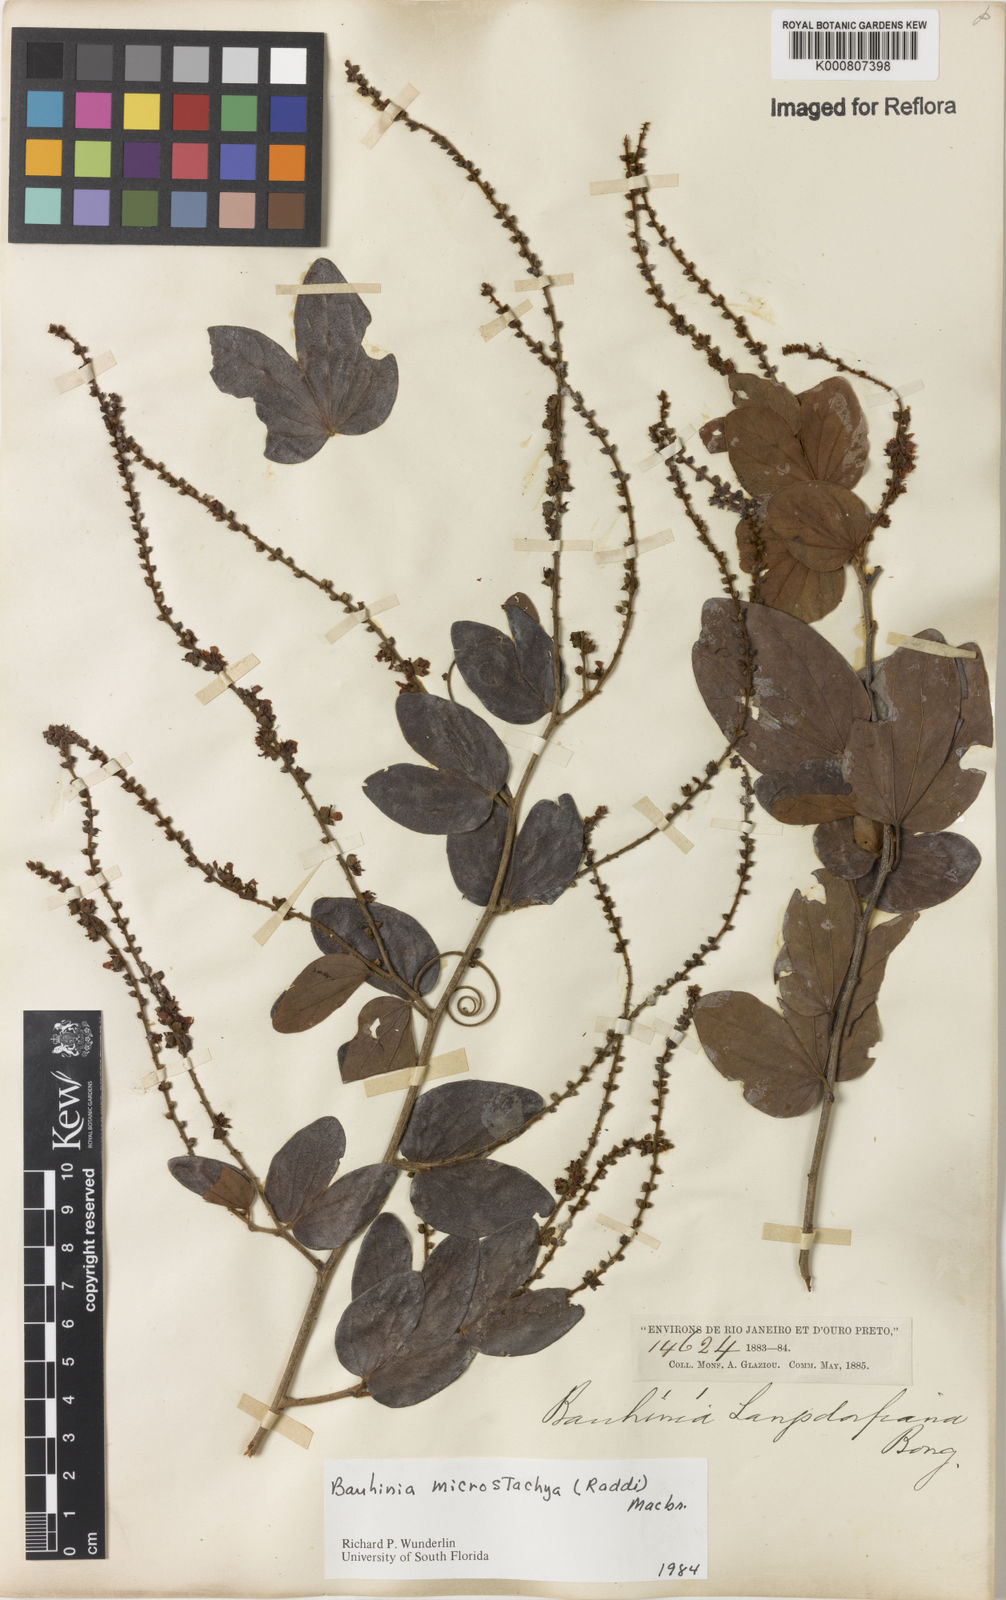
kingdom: Plantae
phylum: Tracheophyta
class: Magnoliopsida
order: Fabales
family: Fabaceae
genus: Schnella
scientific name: Schnella microstachya
